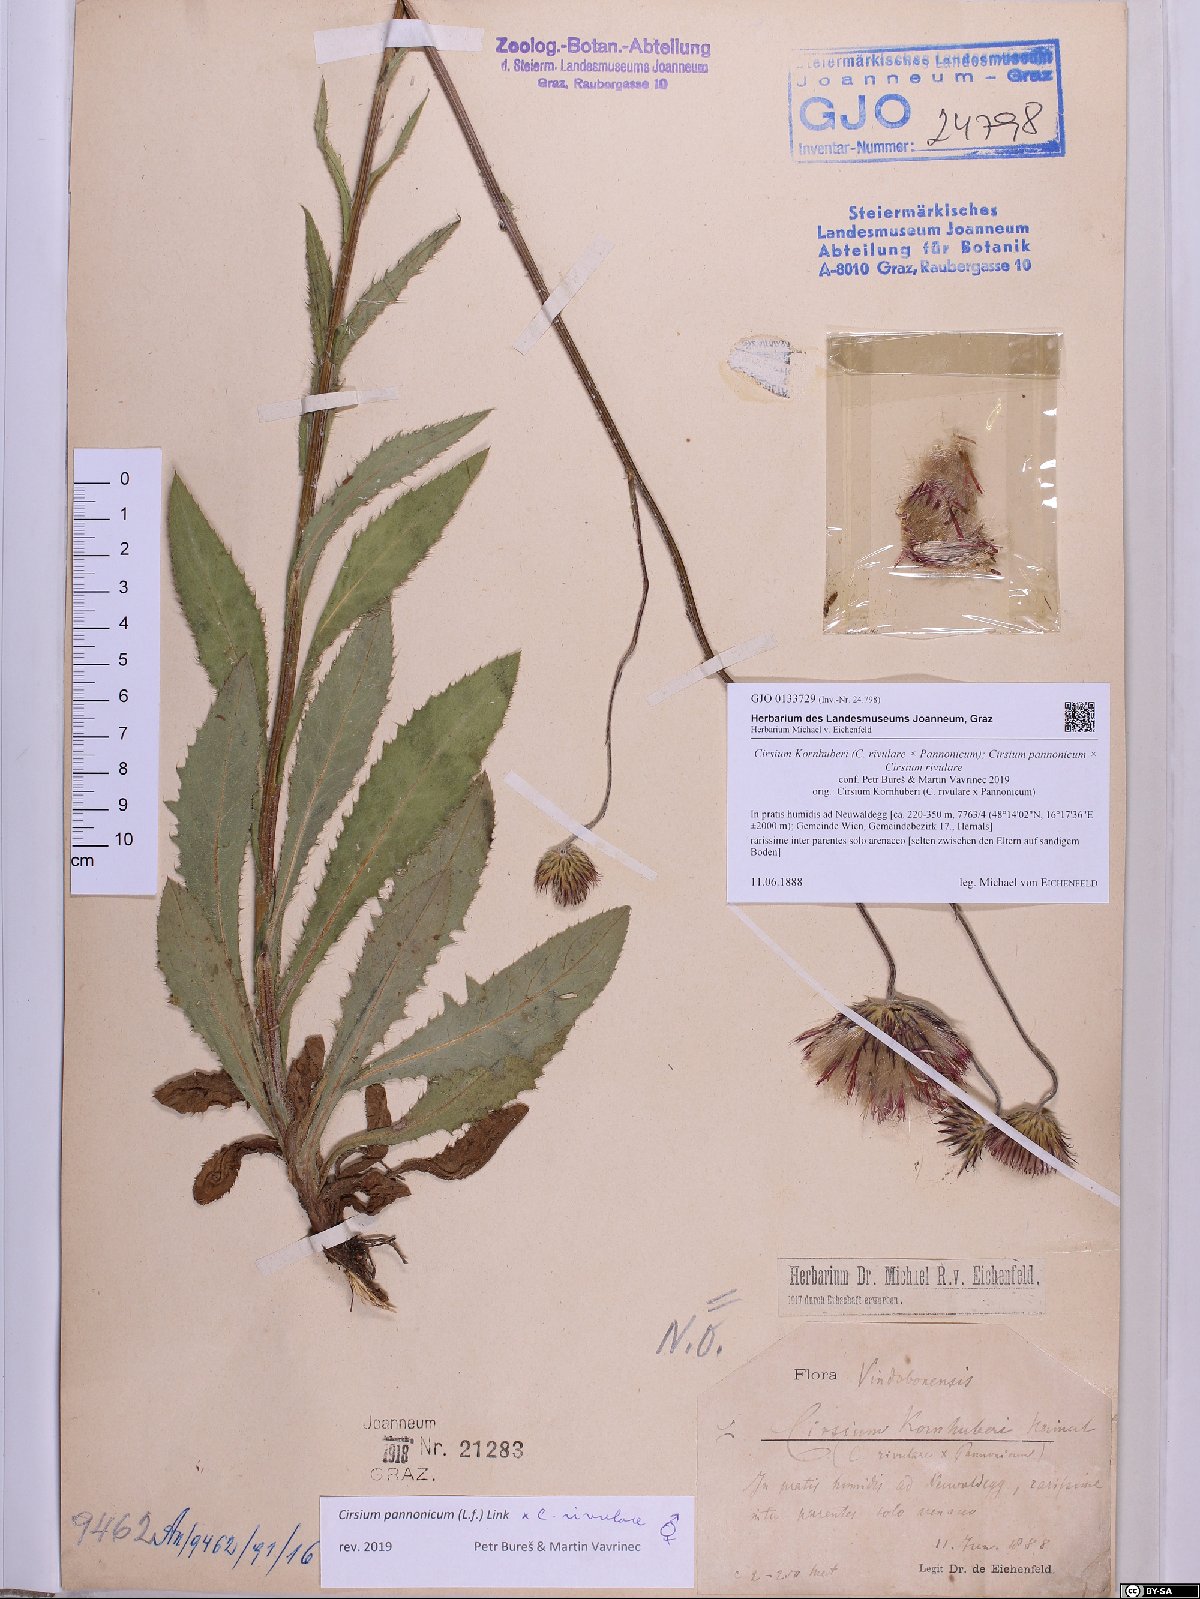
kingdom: Plantae
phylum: Tracheophyta
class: Magnoliopsida
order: Asterales
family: Asteraceae
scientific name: Asteraceae
